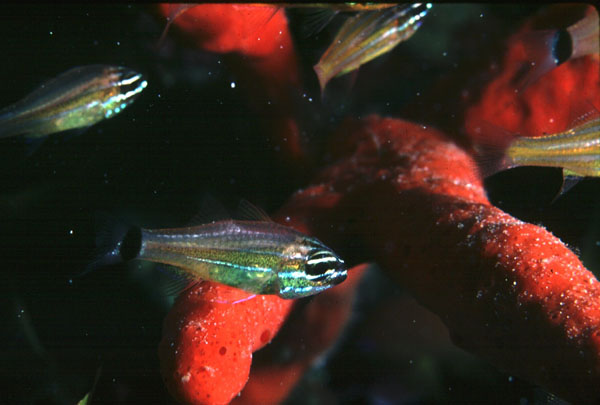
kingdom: Animalia
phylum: Chordata
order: Perciformes
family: Apogonidae
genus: Ostorhinchus
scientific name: Ostorhinchus pselion
